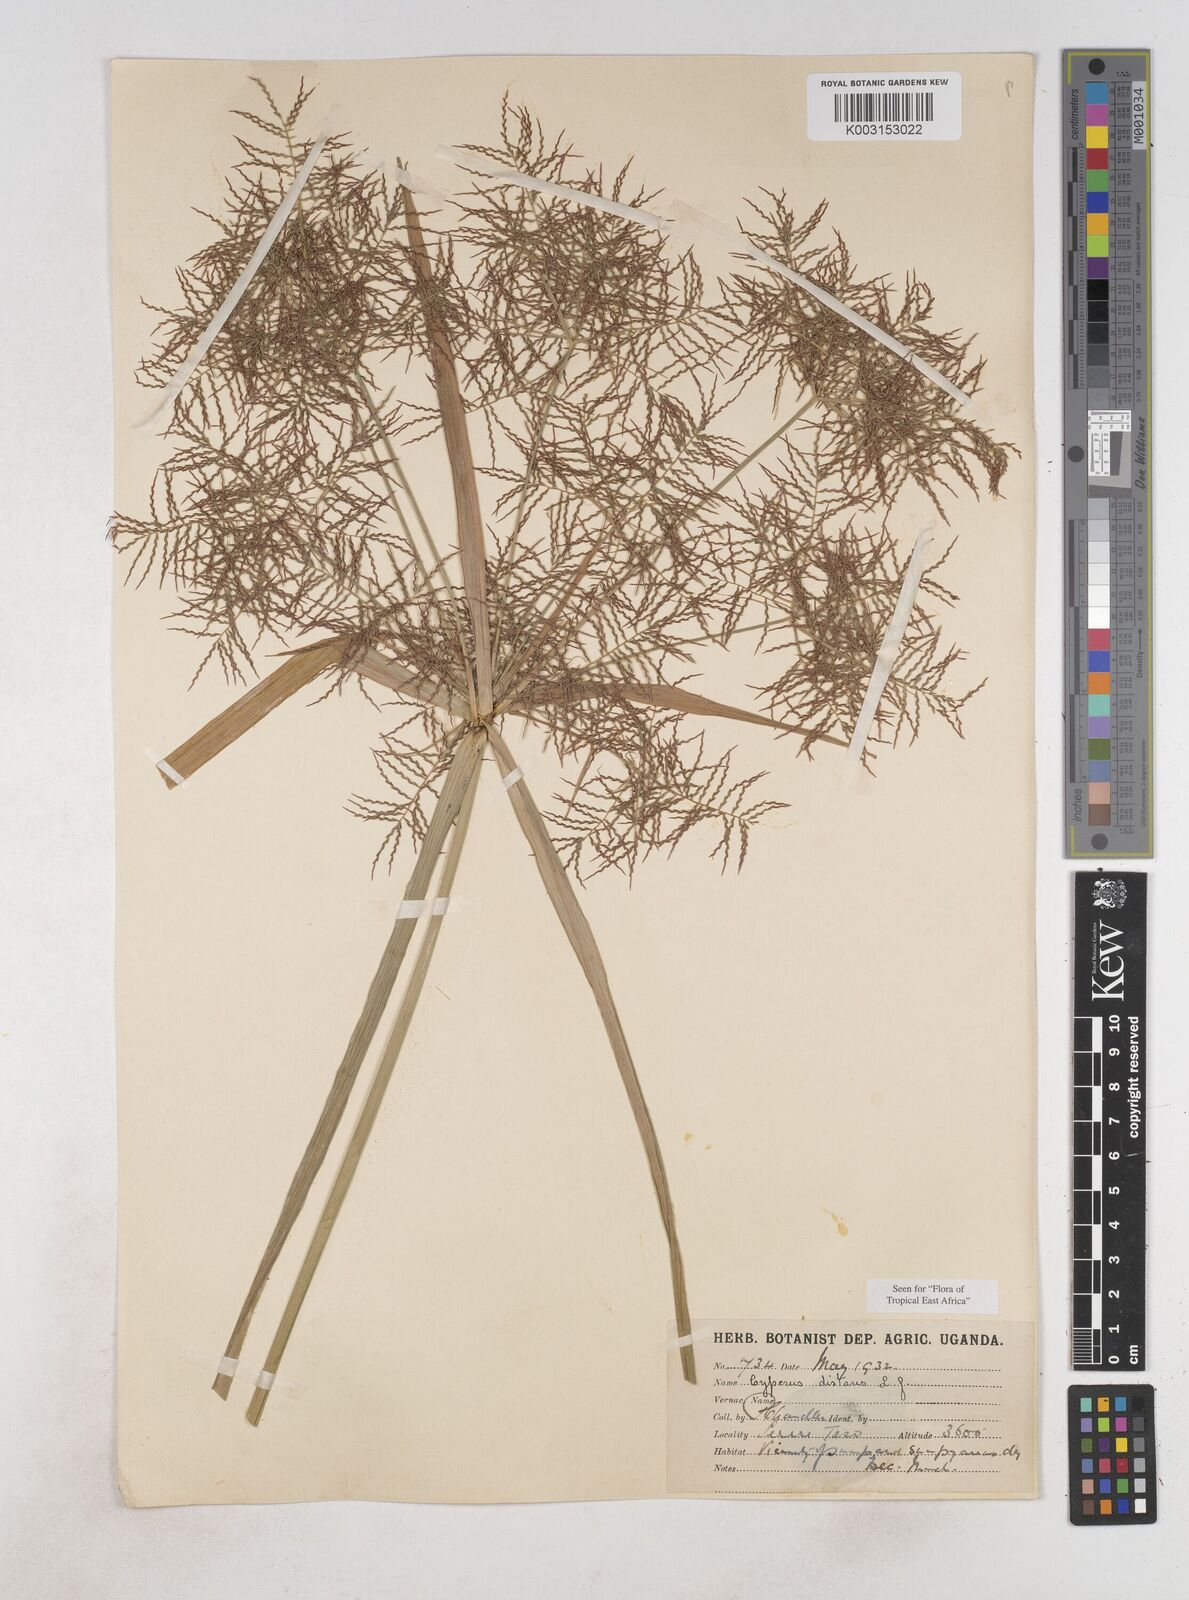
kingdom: Plantae
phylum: Tracheophyta
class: Liliopsida
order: Poales
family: Cyperaceae
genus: Cyperus
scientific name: Cyperus distans
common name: Slender cyperus
